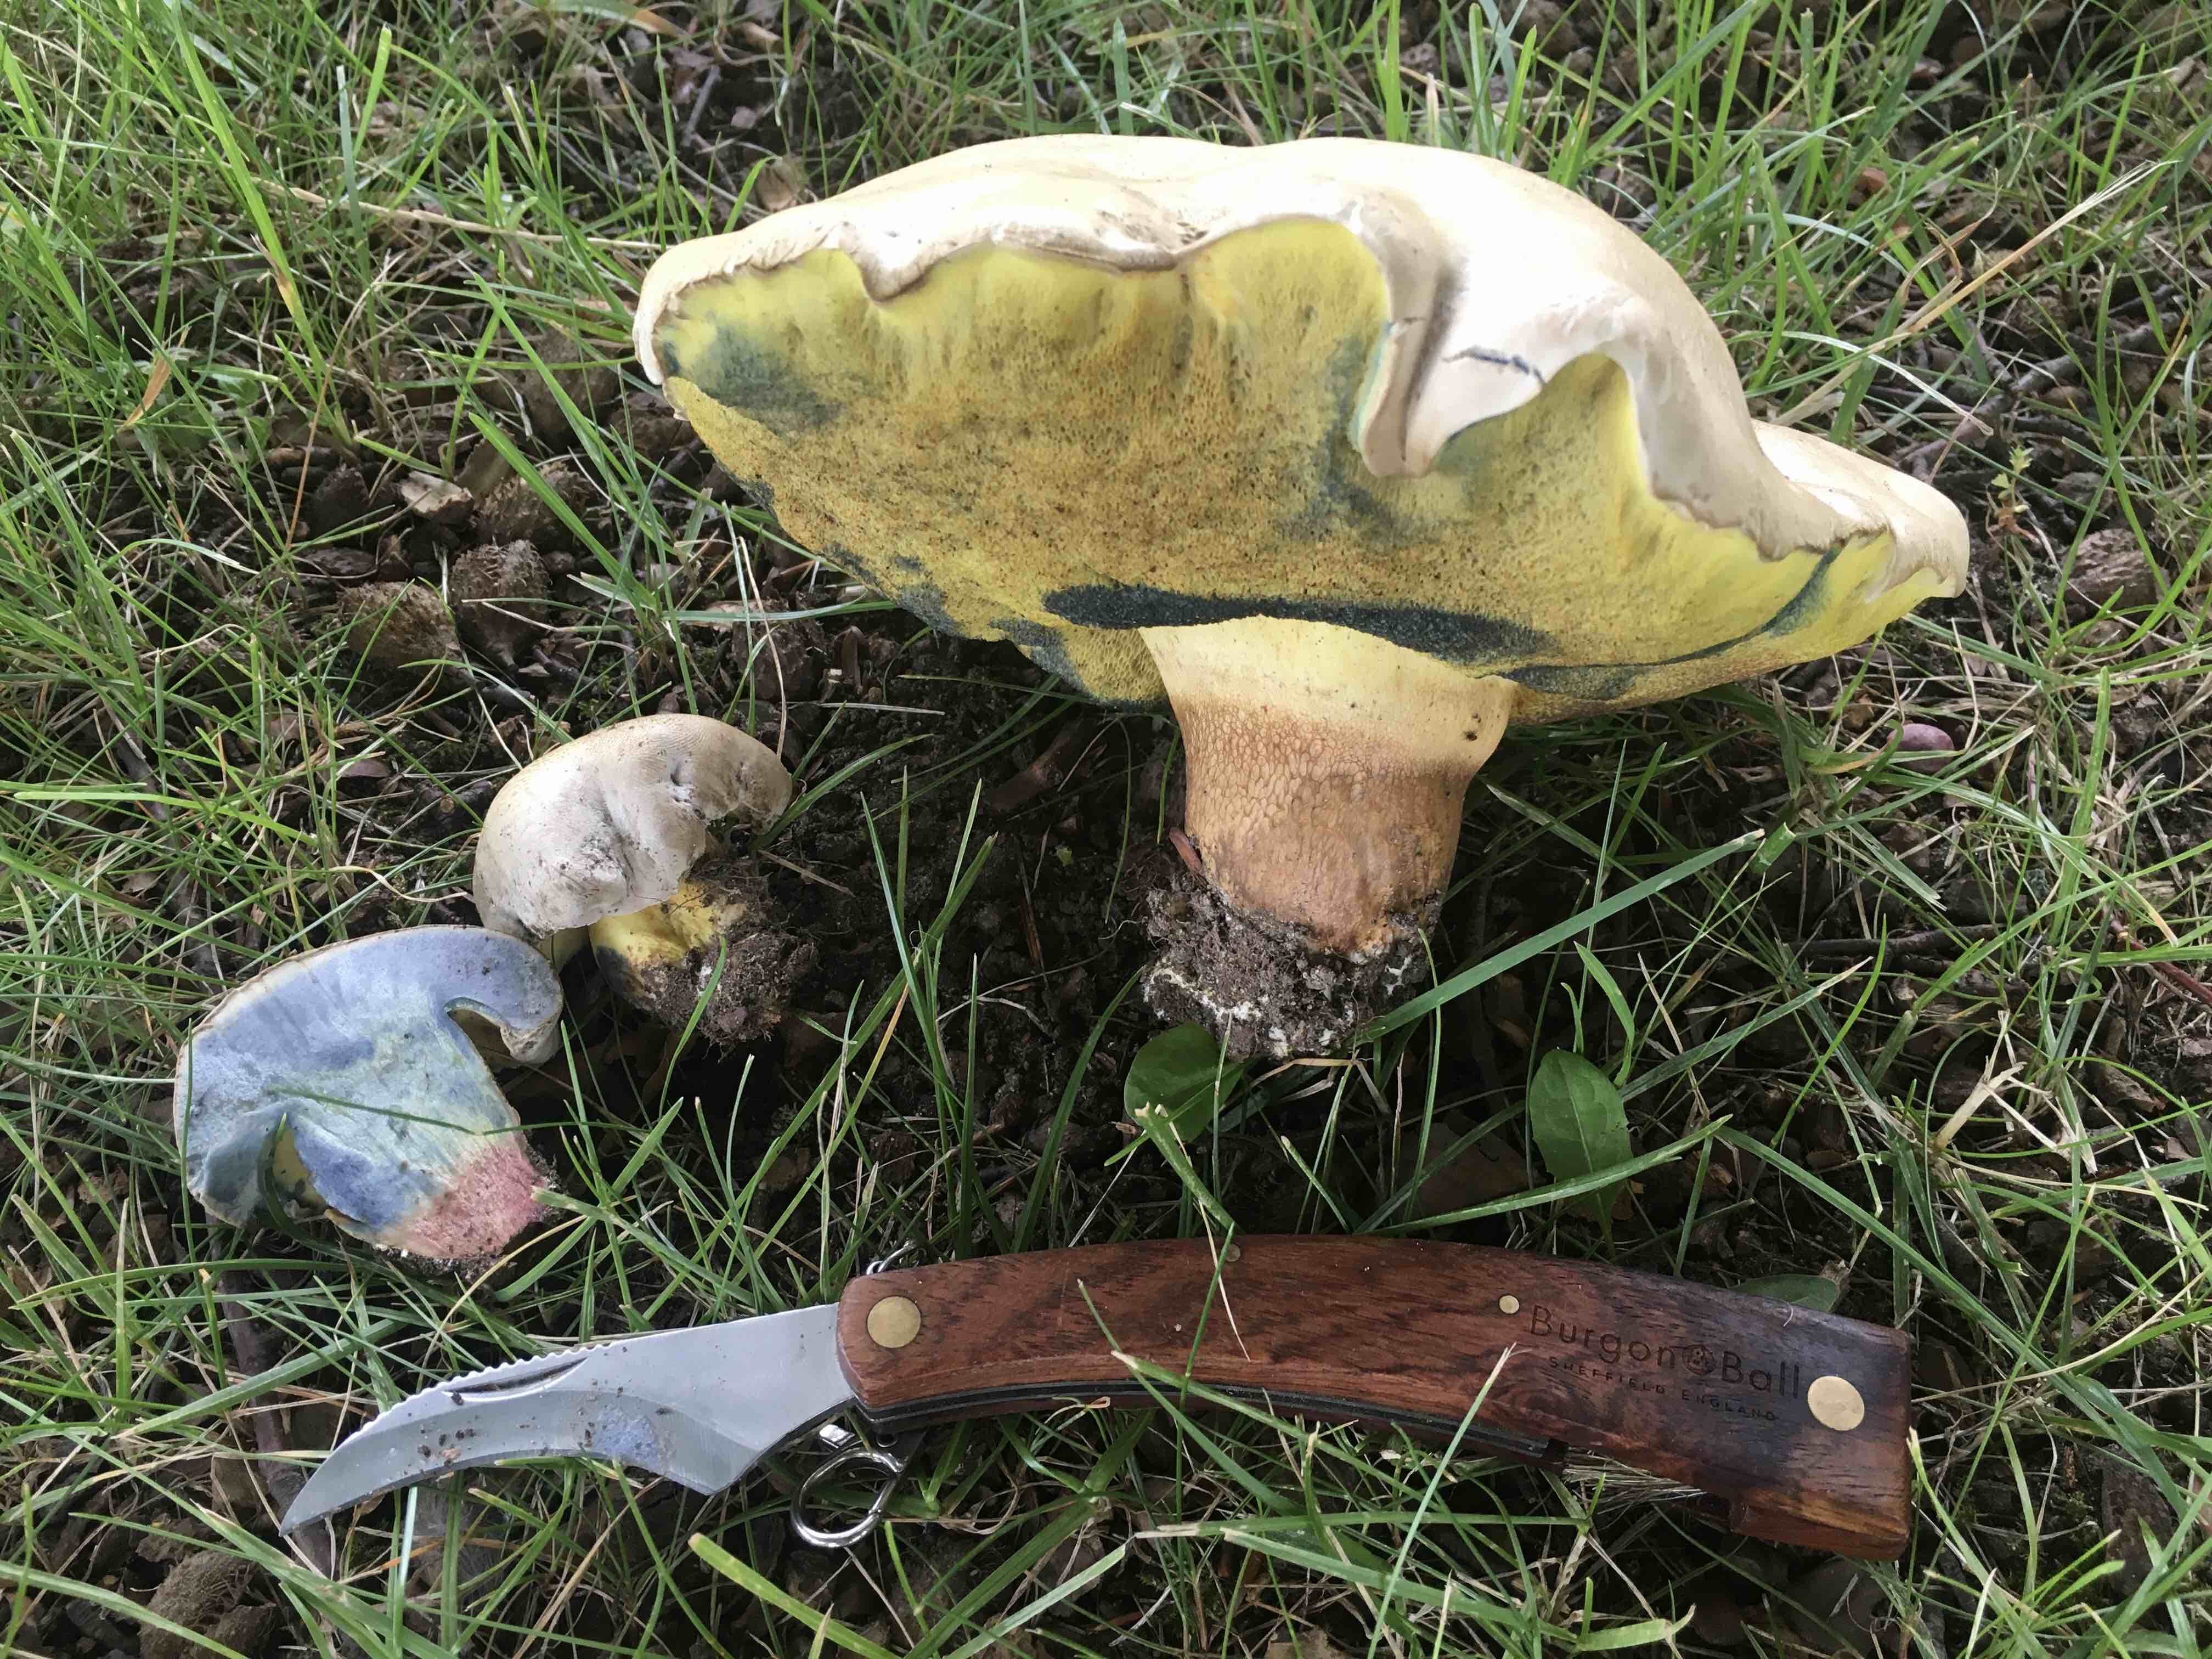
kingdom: Fungi
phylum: Basidiomycota
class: Agaricomycetes
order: Boletales
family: Boletaceae
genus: Caloboletus
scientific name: Caloboletus radicans
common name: rod-rørhat
